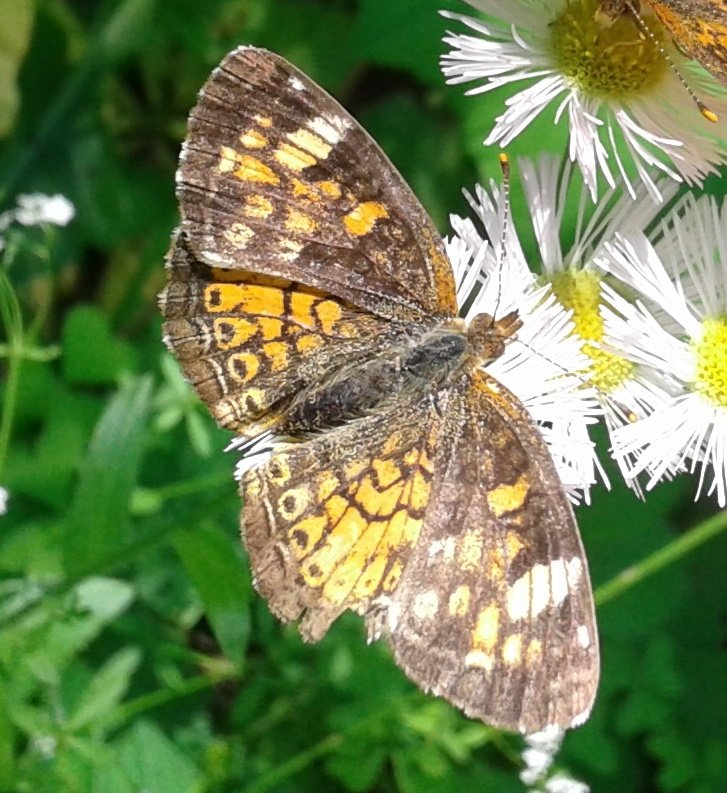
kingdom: Animalia
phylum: Arthropoda
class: Insecta
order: Lepidoptera
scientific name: Lepidoptera
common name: Butterflies
